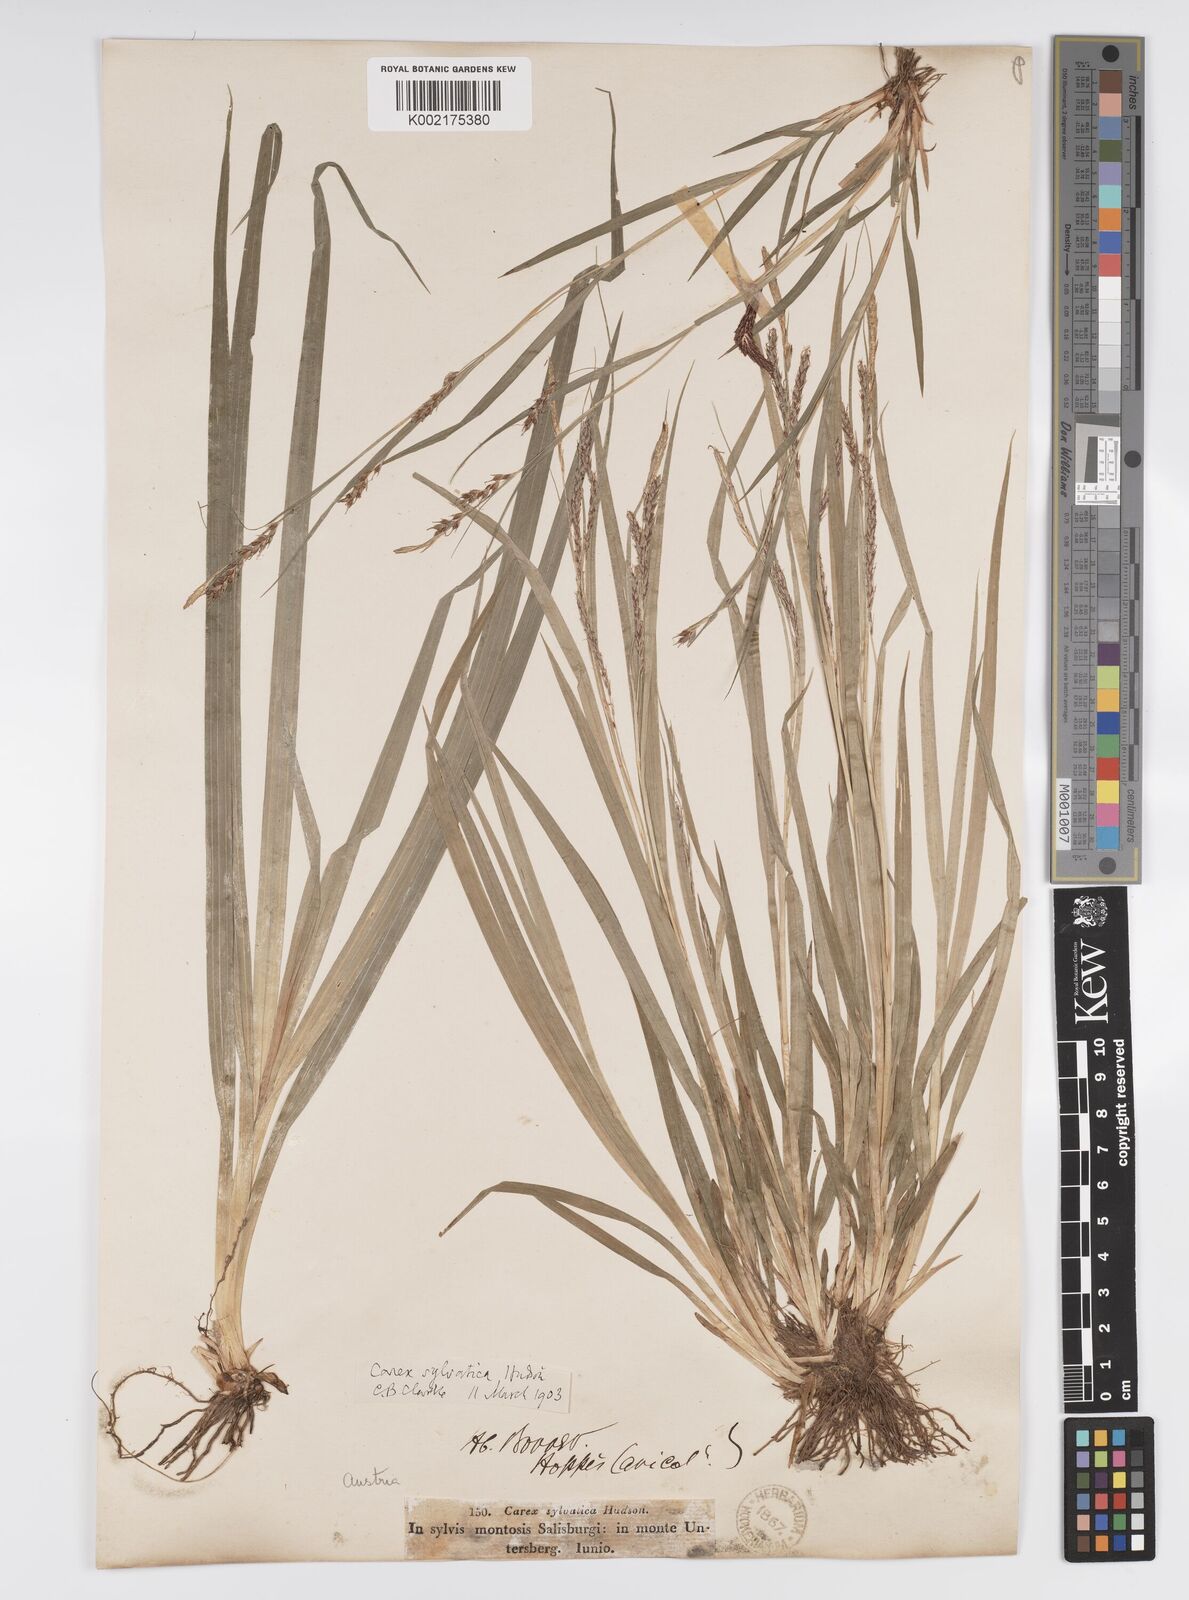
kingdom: Plantae
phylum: Tracheophyta
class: Liliopsida
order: Poales
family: Cyperaceae
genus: Carex
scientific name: Carex sylvatica
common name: Wood-sedge
